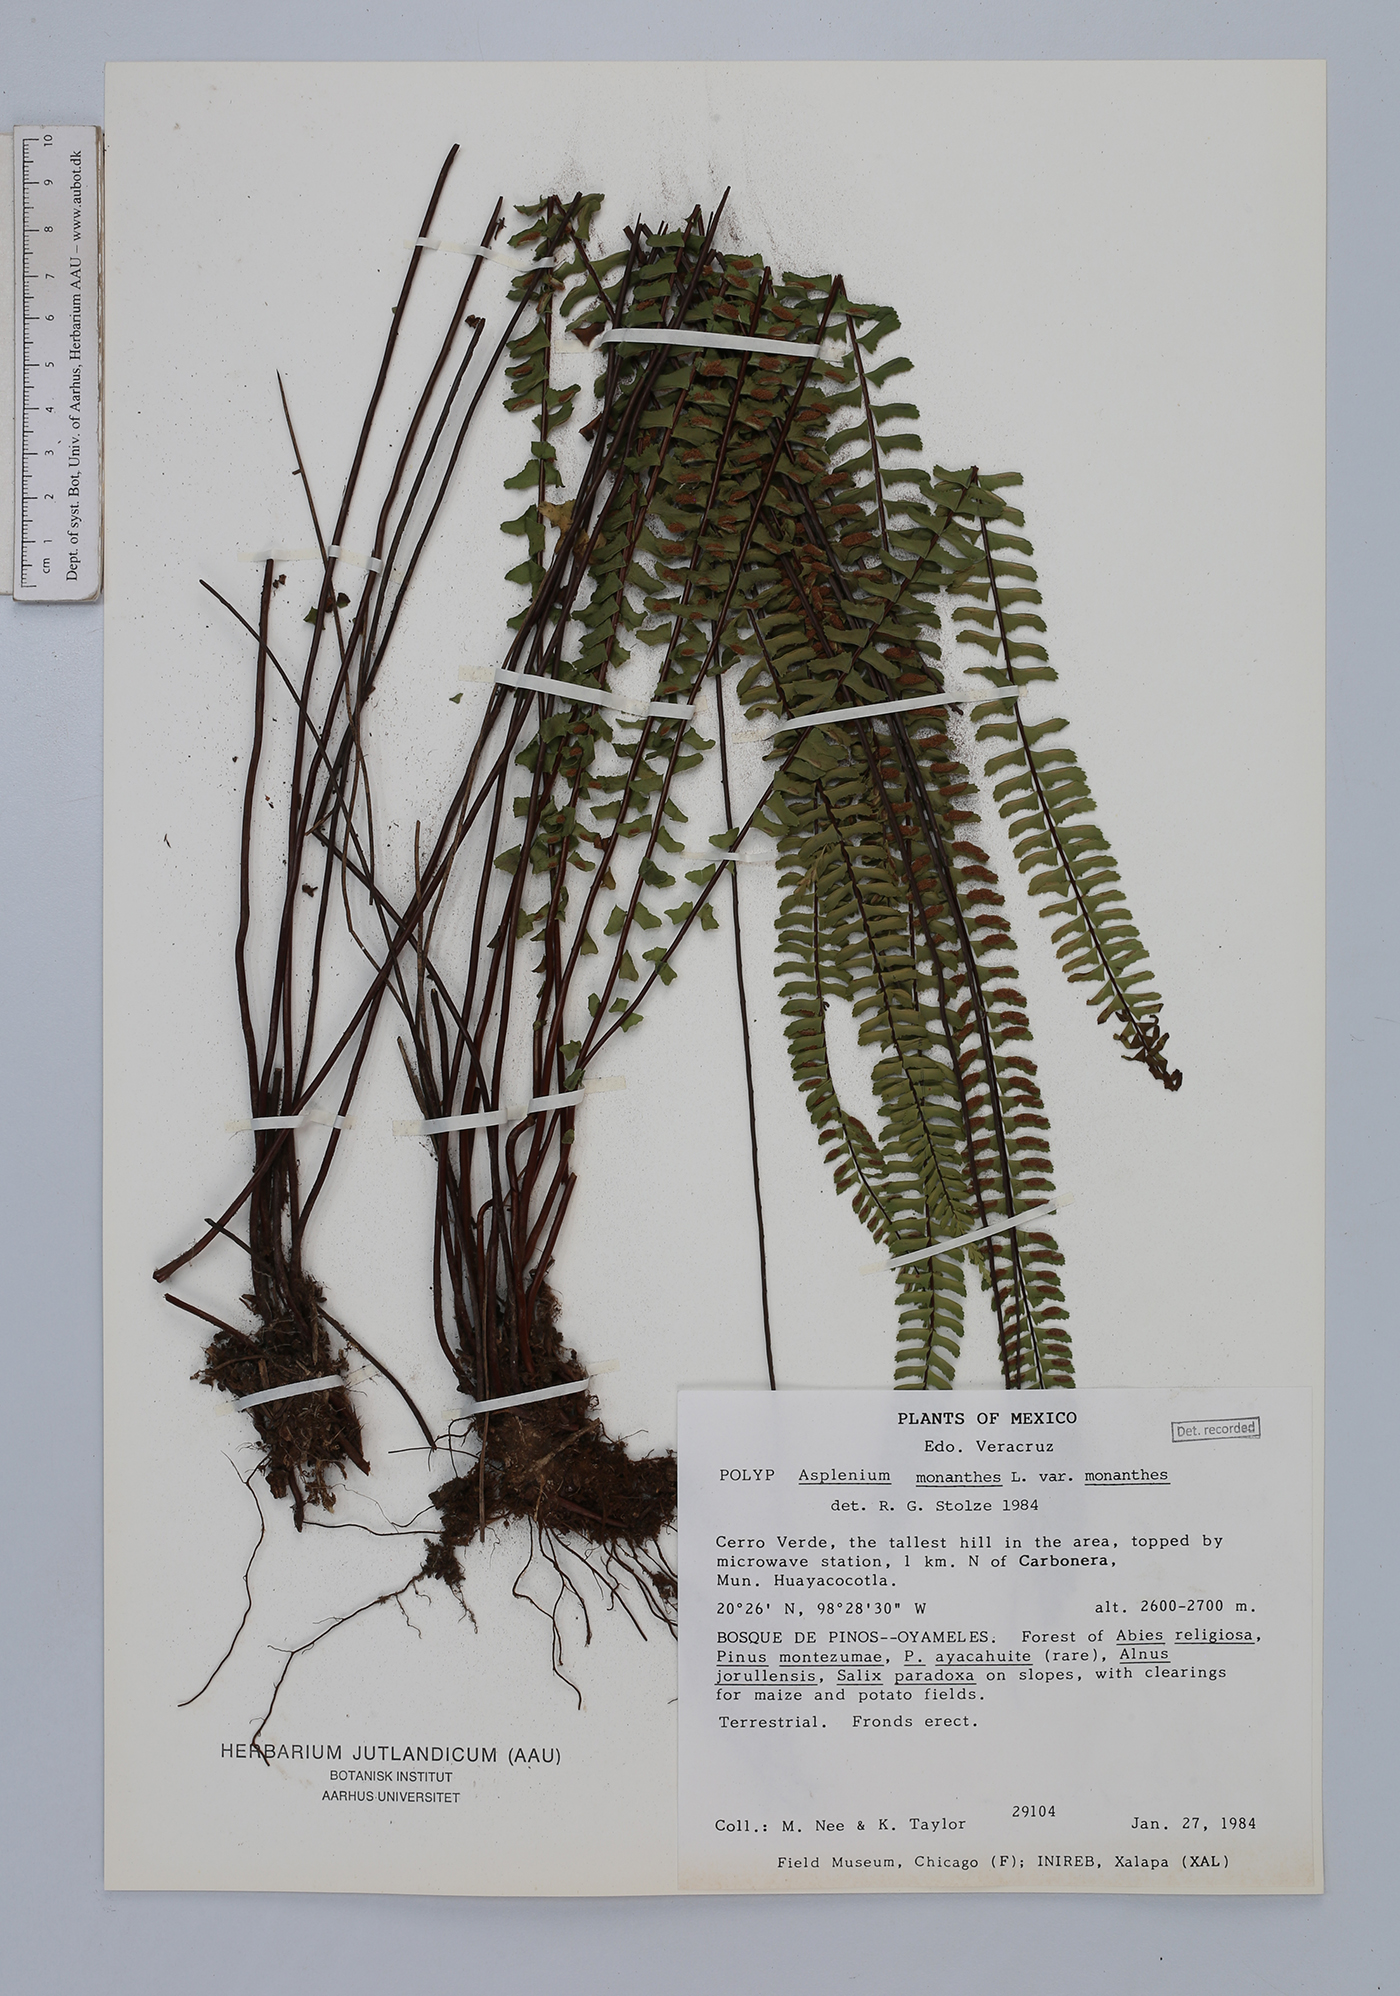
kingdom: Plantae
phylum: Tracheophyta
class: Polypodiopsida
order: Polypodiales
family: Aspleniaceae
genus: Asplenium
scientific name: Asplenium monanthes
